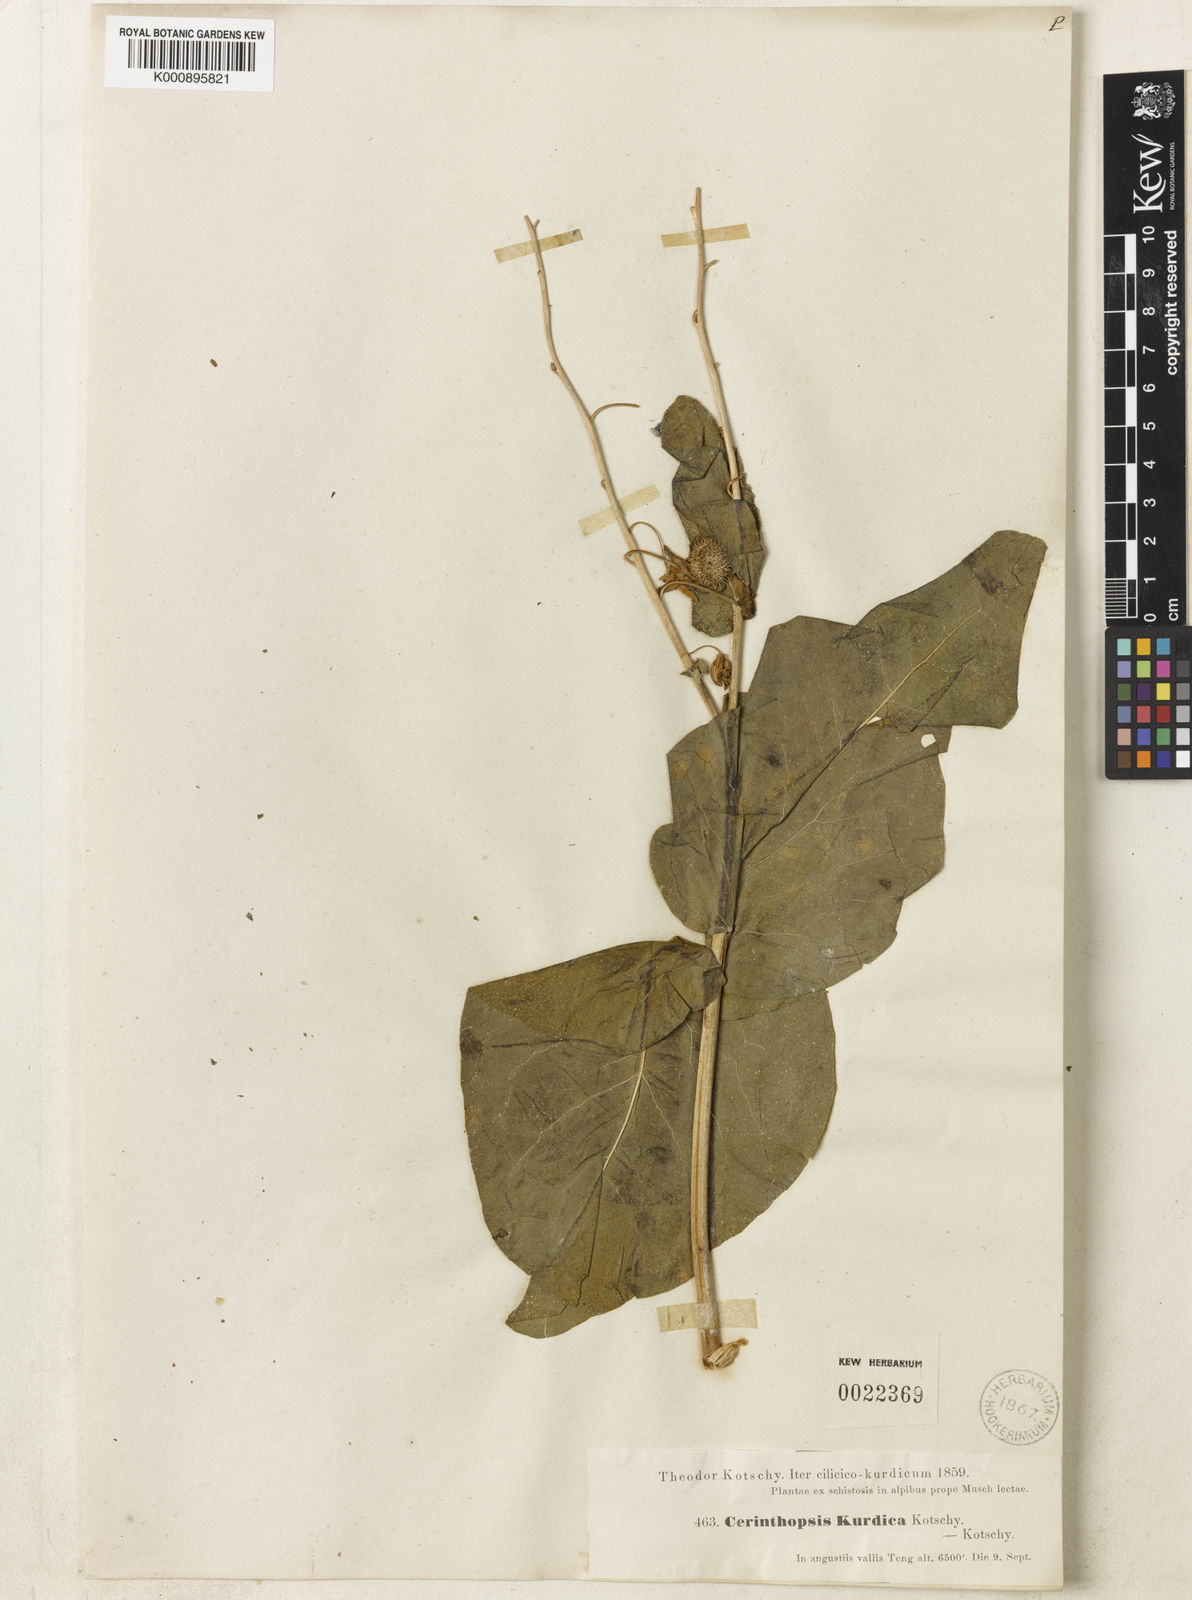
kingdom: Plantae
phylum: Tracheophyta
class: Magnoliopsida
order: Boraginales
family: Boraginaceae
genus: Trachelanthus
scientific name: Trachelanthus
